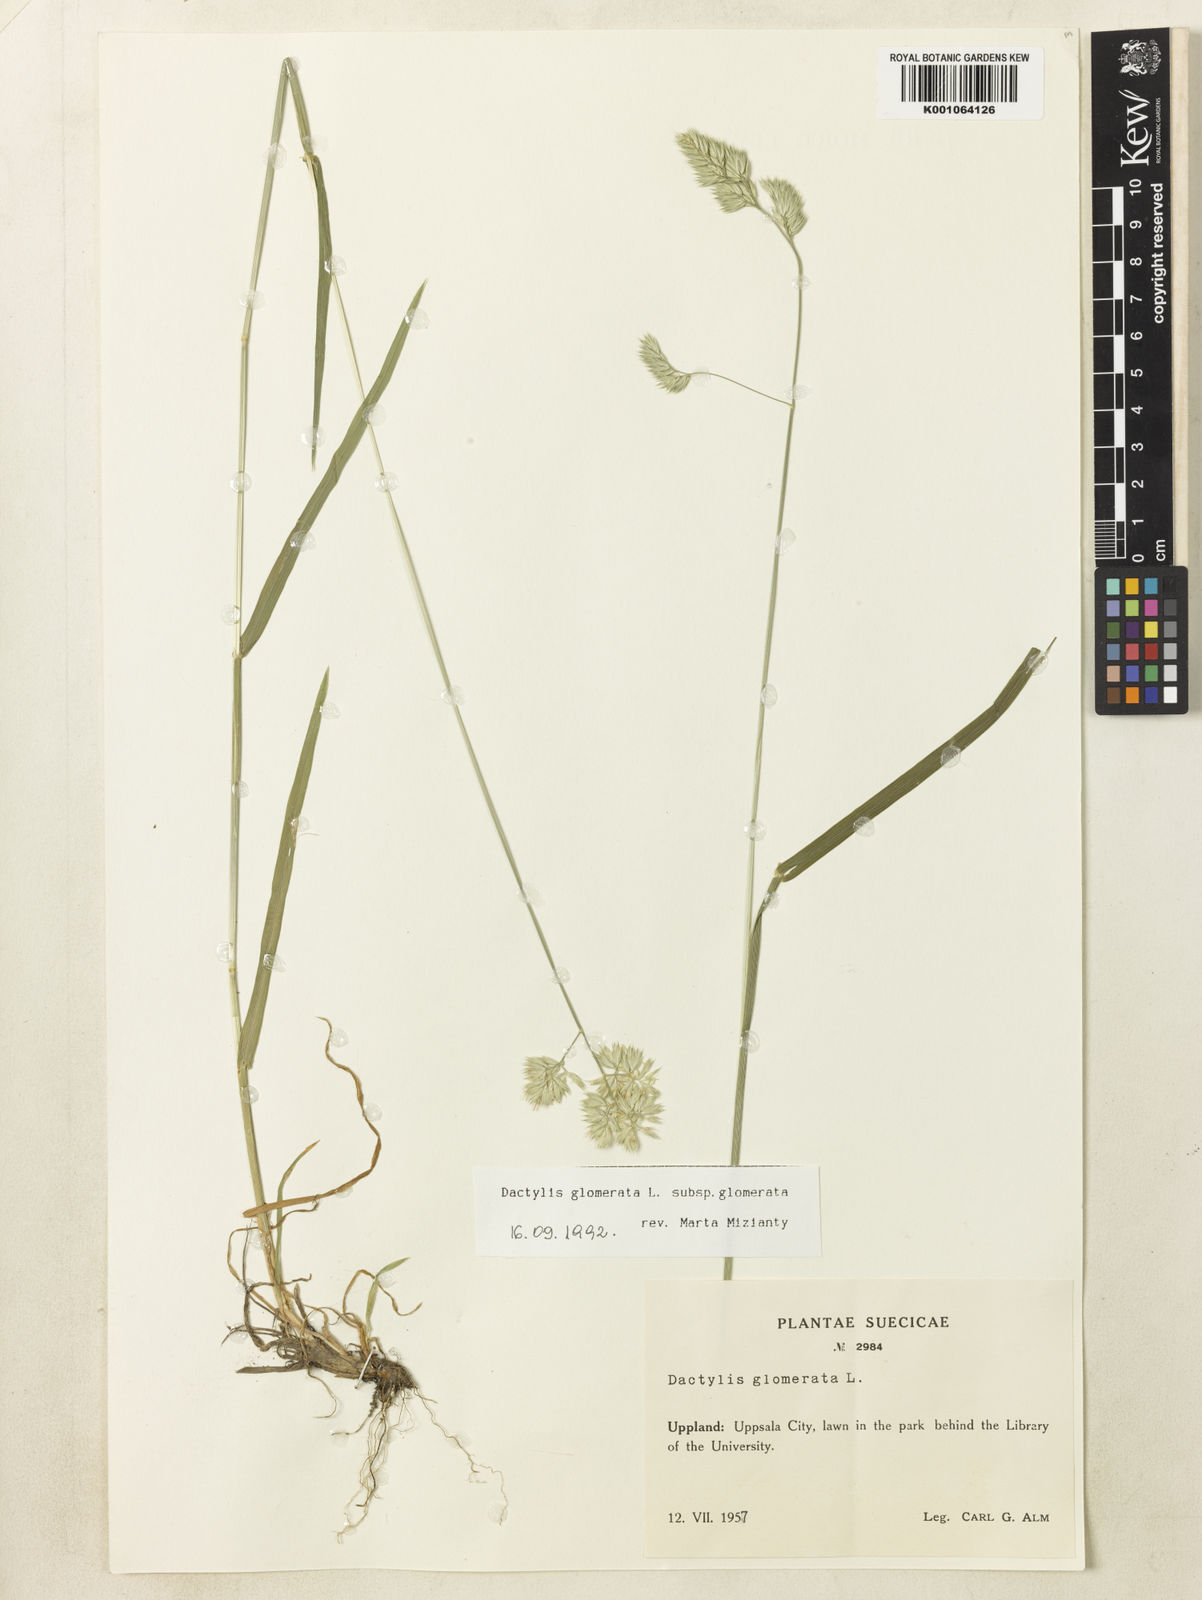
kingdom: Plantae
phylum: Tracheophyta
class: Liliopsida
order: Poales
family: Poaceae
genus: Dactylis
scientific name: Dactylis glomerata
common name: Orchardgrass
